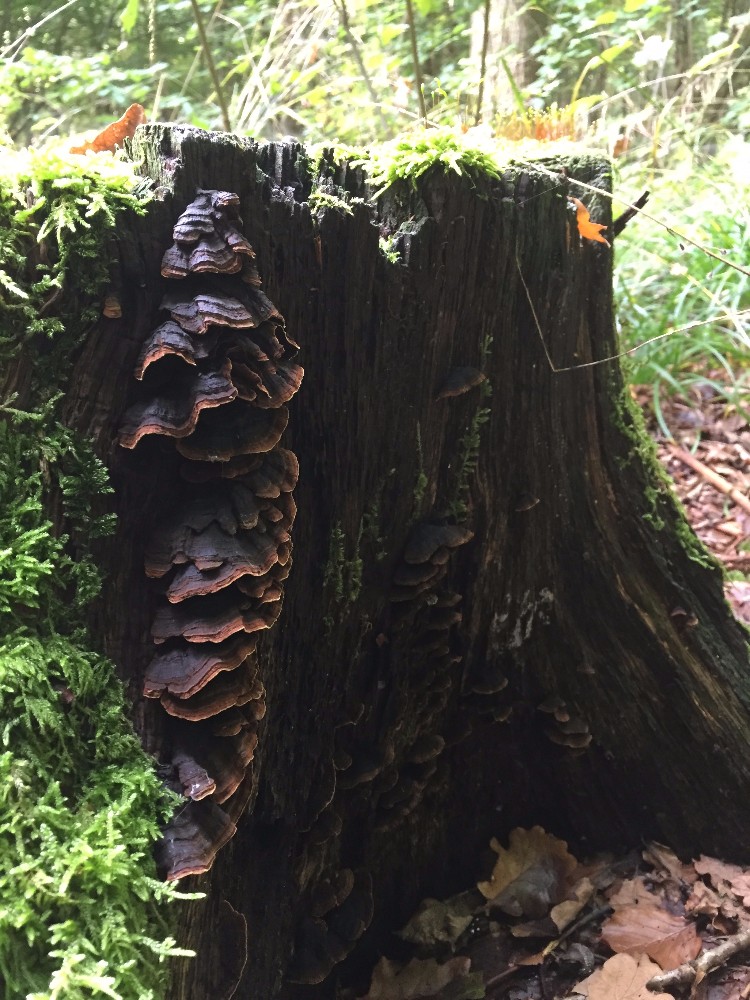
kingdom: Fungi
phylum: Basidiomycota
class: Agaricomycetes
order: Hymenochaetales
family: Hymenochaetaceae
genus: Hymenochaete
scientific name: Hymenochaete rubiginosa
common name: stiv ruslædersvamp
